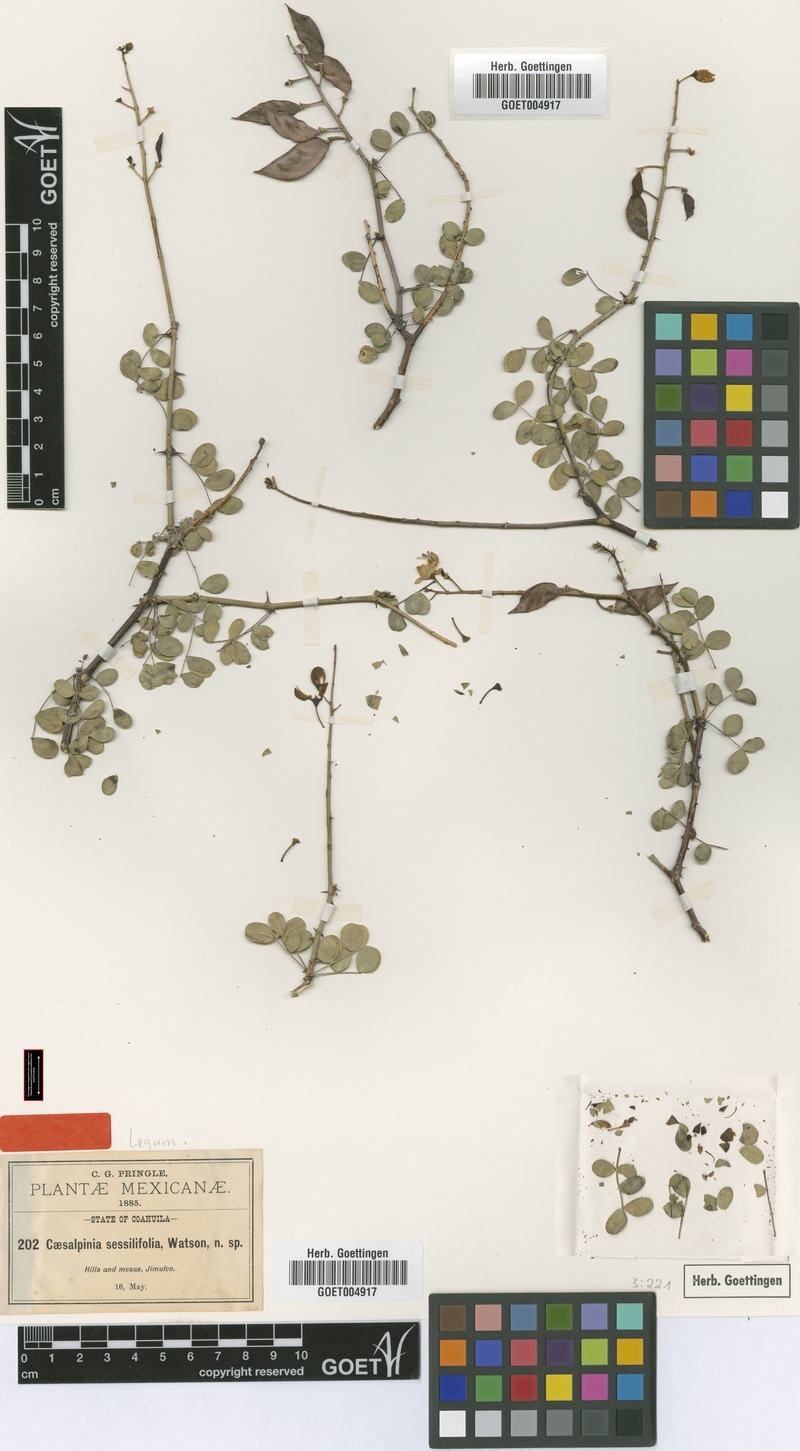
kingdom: Plantae
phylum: Tracheophyta
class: Magnoliopsida
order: Fabales
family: Fabaceae
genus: Denisophytum
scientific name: Denisophytum sessilifolium
